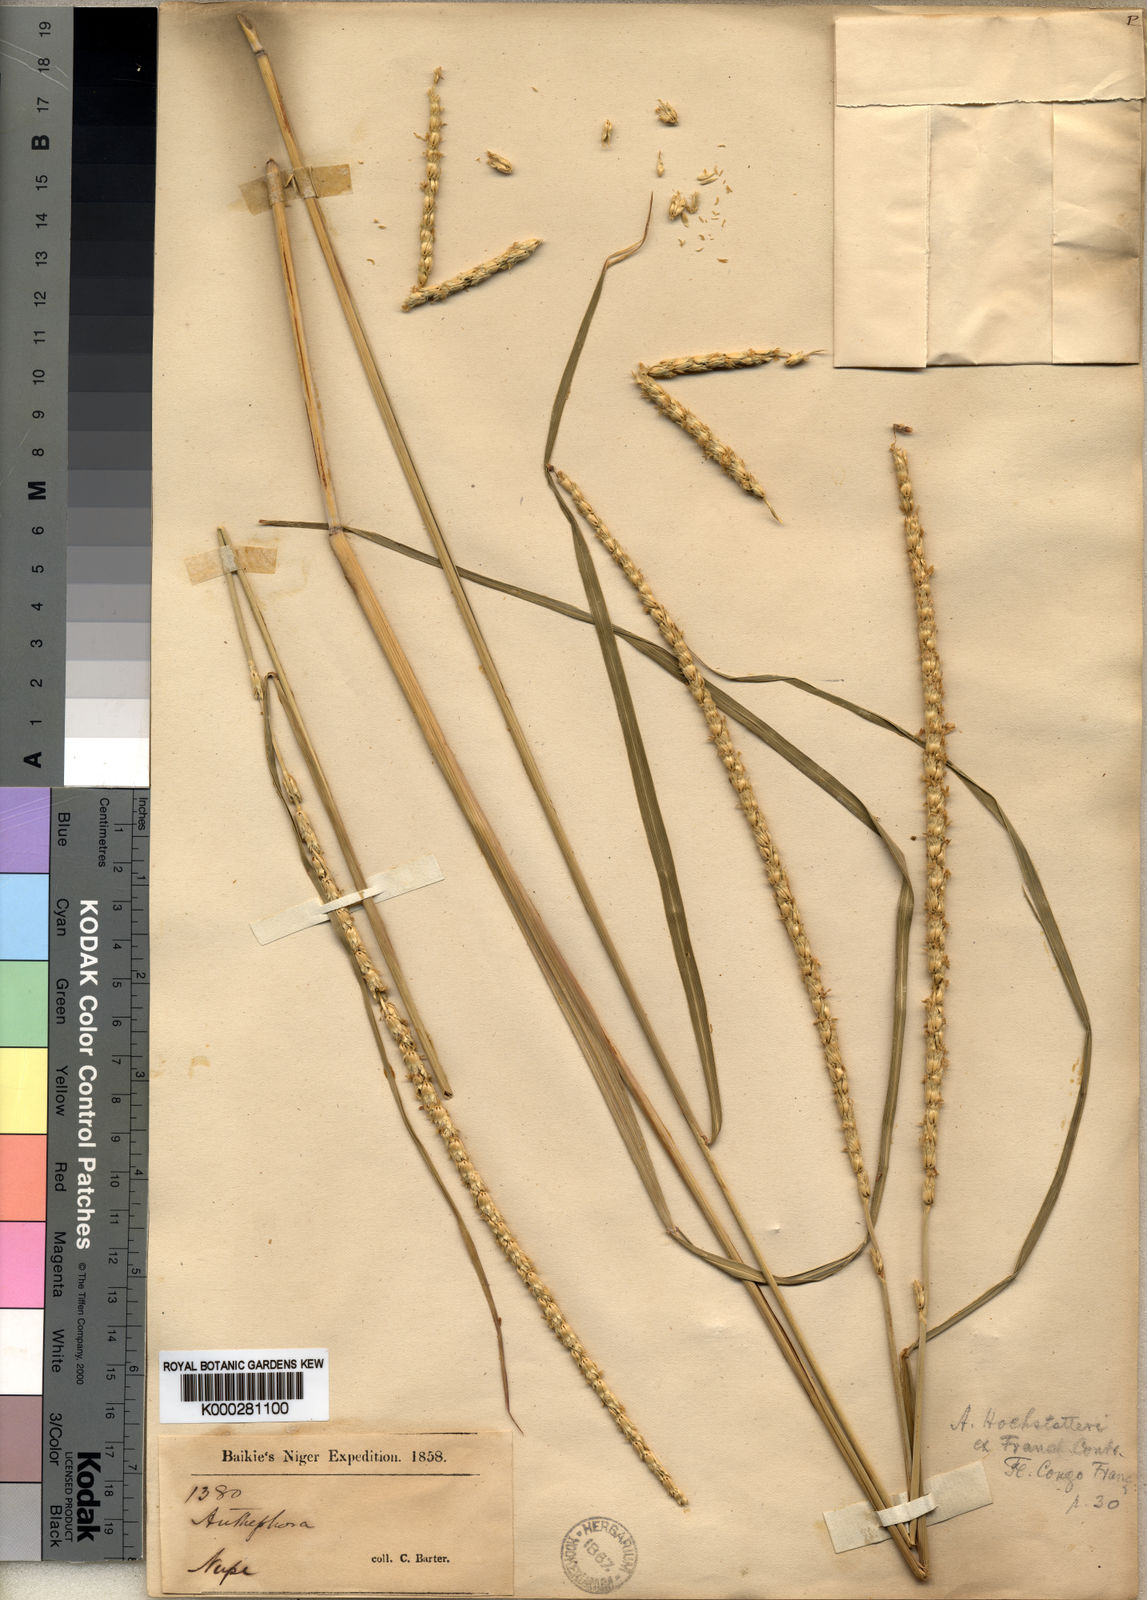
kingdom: Plantae
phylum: Tracheophyta
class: Liliopsida
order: Poales
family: Poaceae
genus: Anthephora
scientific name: Anthephora nigritana
